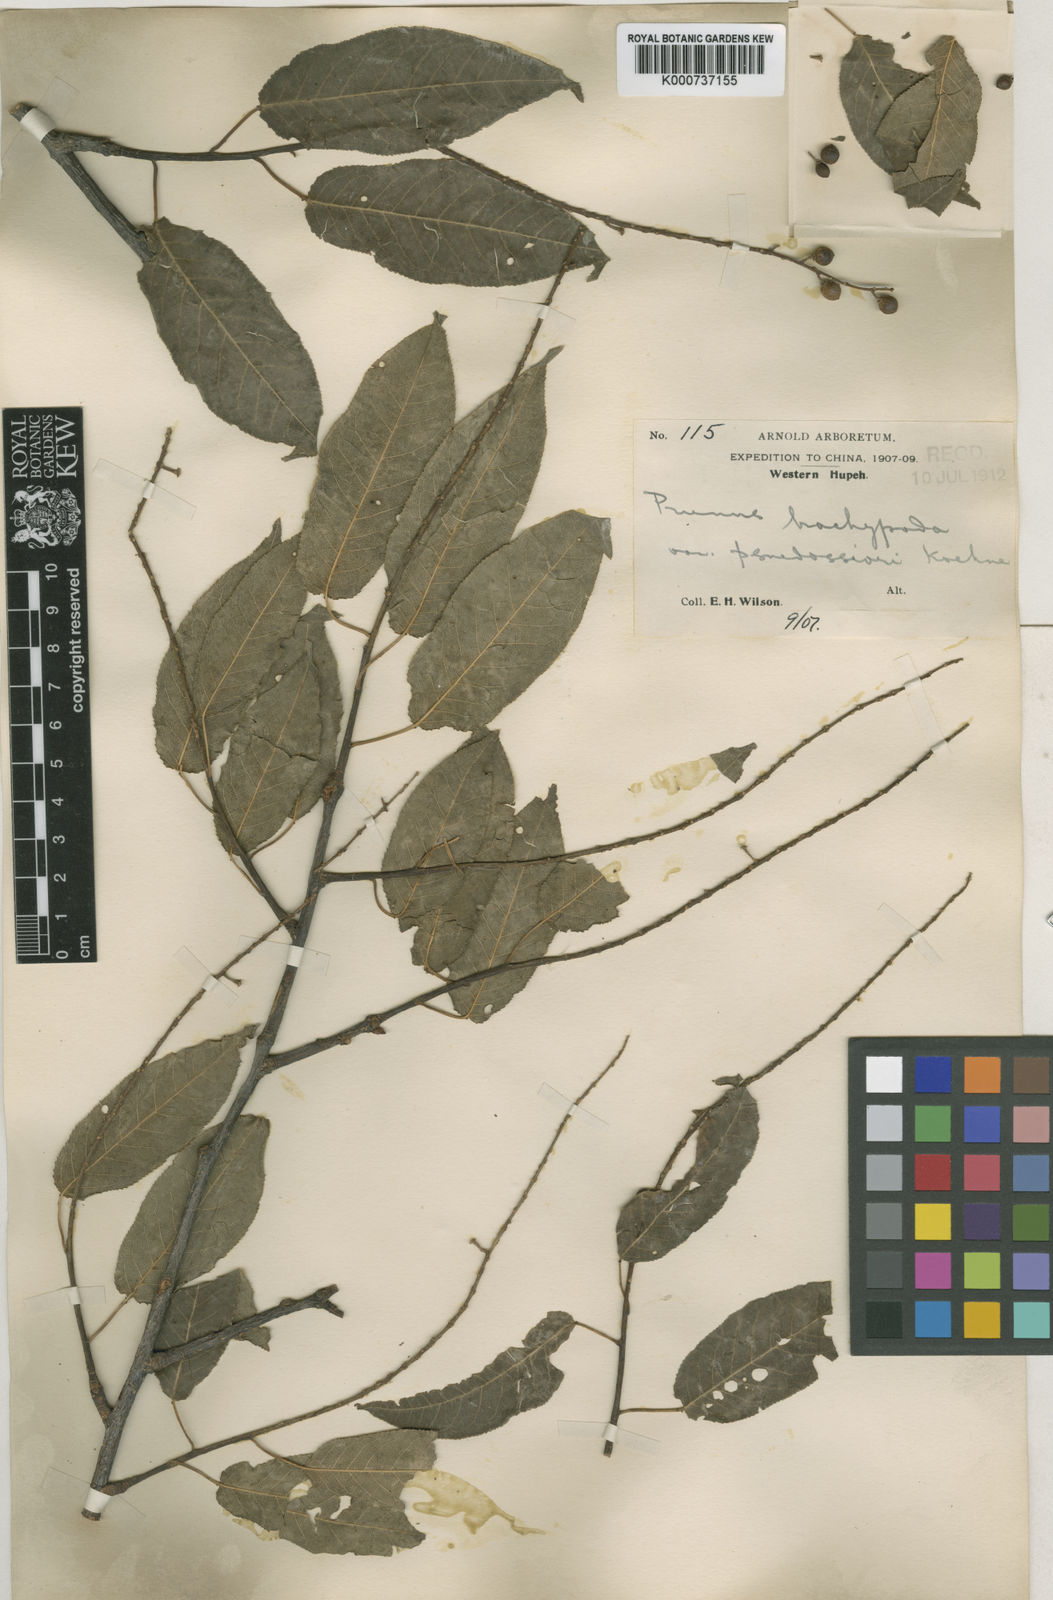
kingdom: Plantae
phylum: Tracheophyta
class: Magnoliopsida
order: Rosales
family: Rosaceae
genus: Prunus
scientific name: Prunus brachypoda
